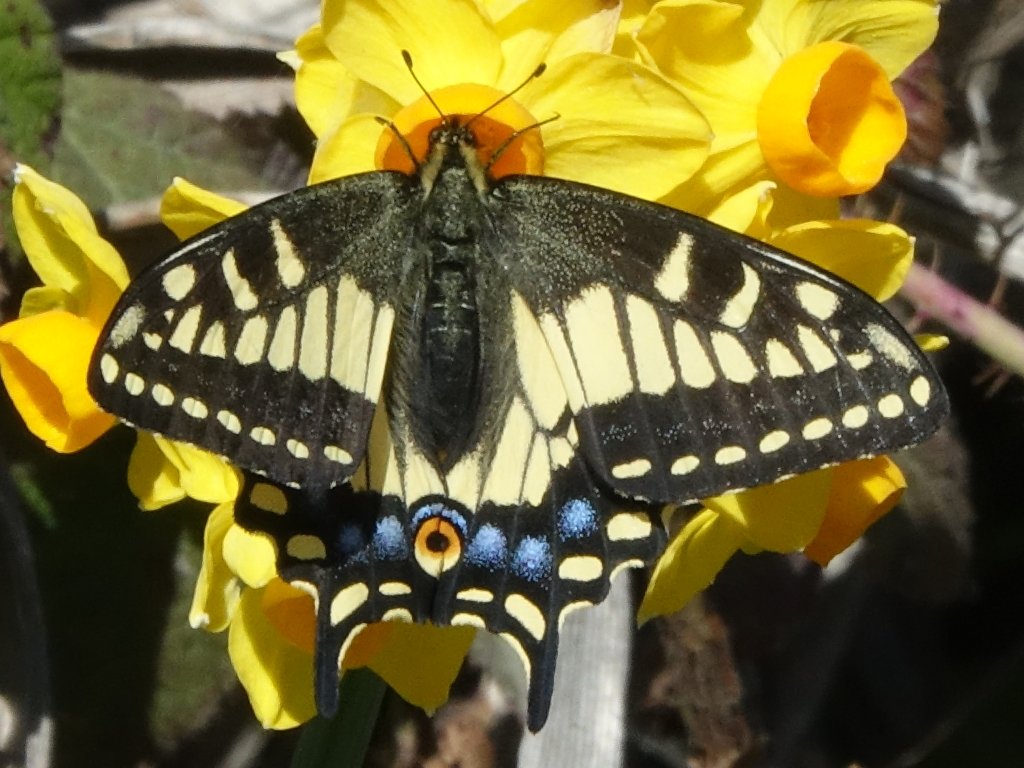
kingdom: Animalia
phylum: Arthropoda
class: Insecta
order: Lepidoptera
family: Papilionidae
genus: Papilio
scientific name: Papilio zelicaon
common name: Anise Swallowtail
